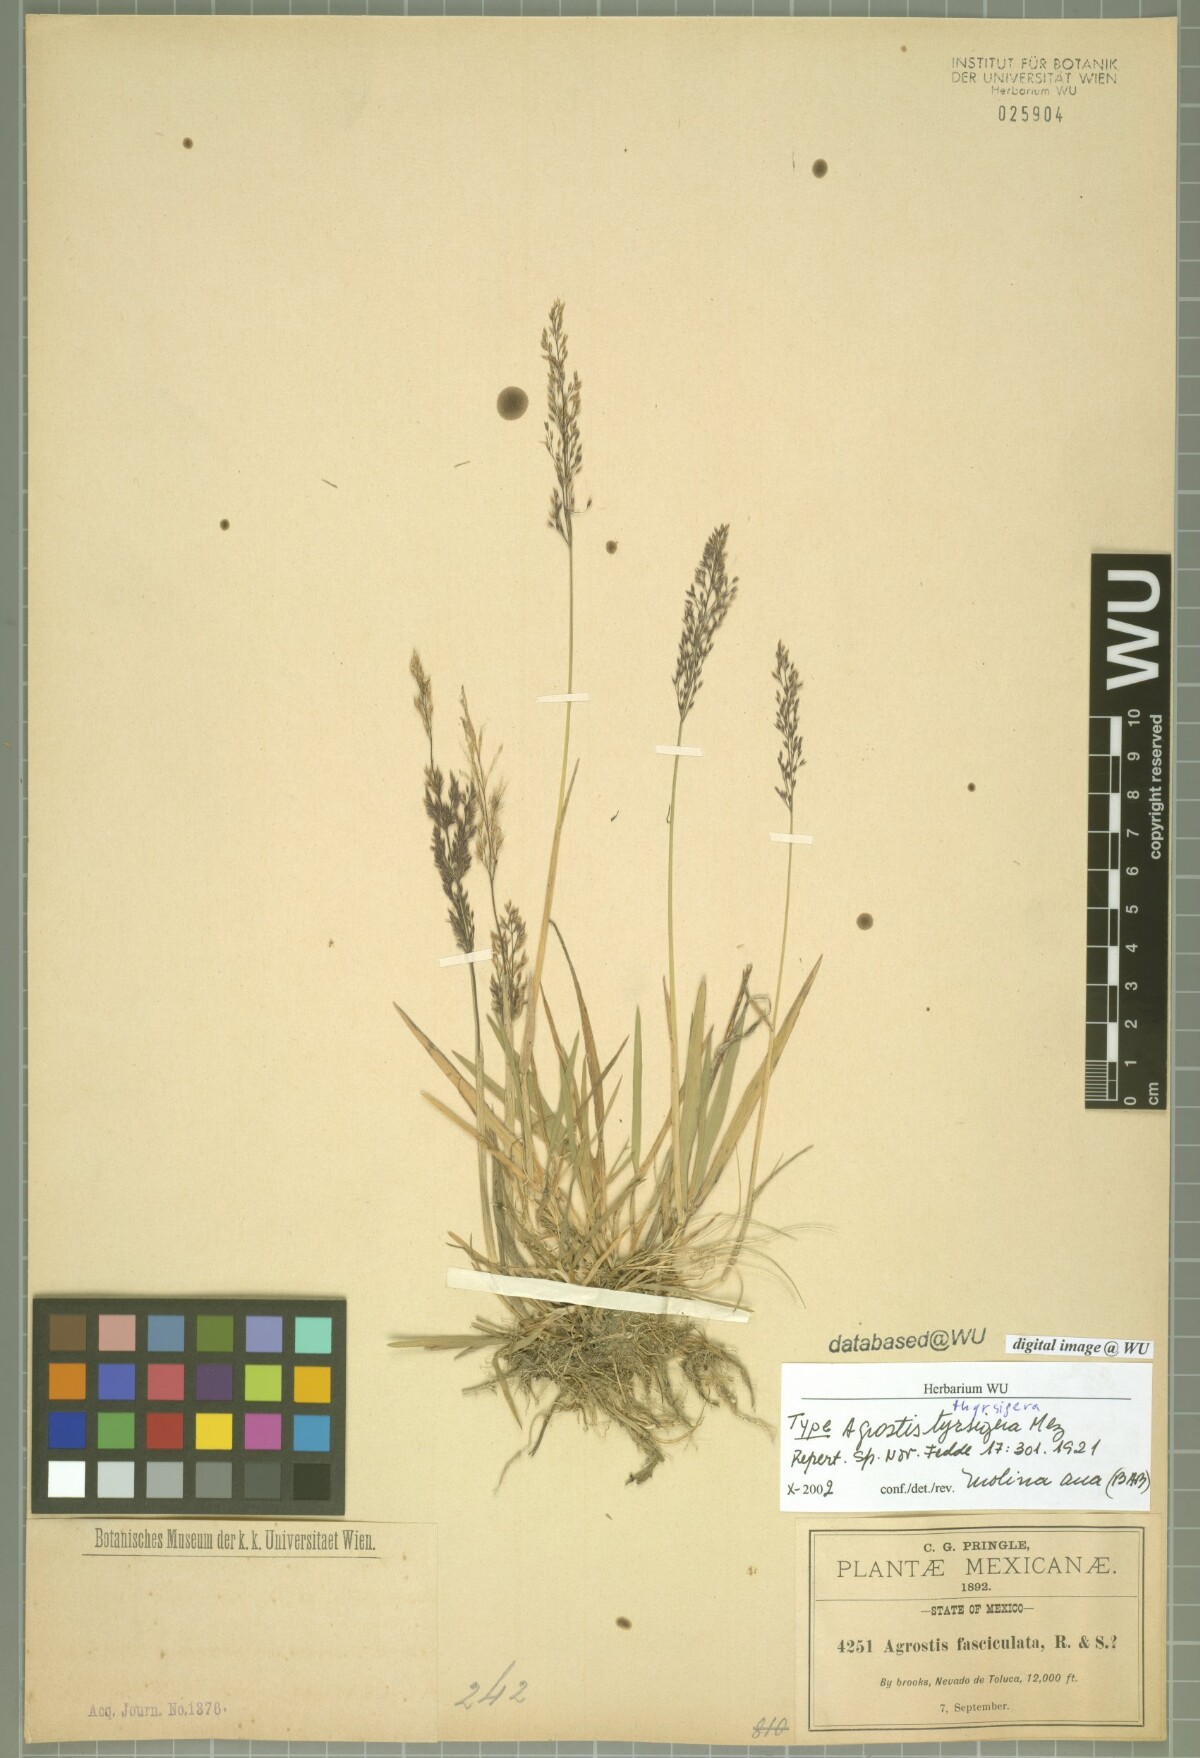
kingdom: Plantae
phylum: Tracheophyta
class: Liliopsida
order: Poales
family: Poaceae
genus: Agrostis
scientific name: Agrostis bourgaei
